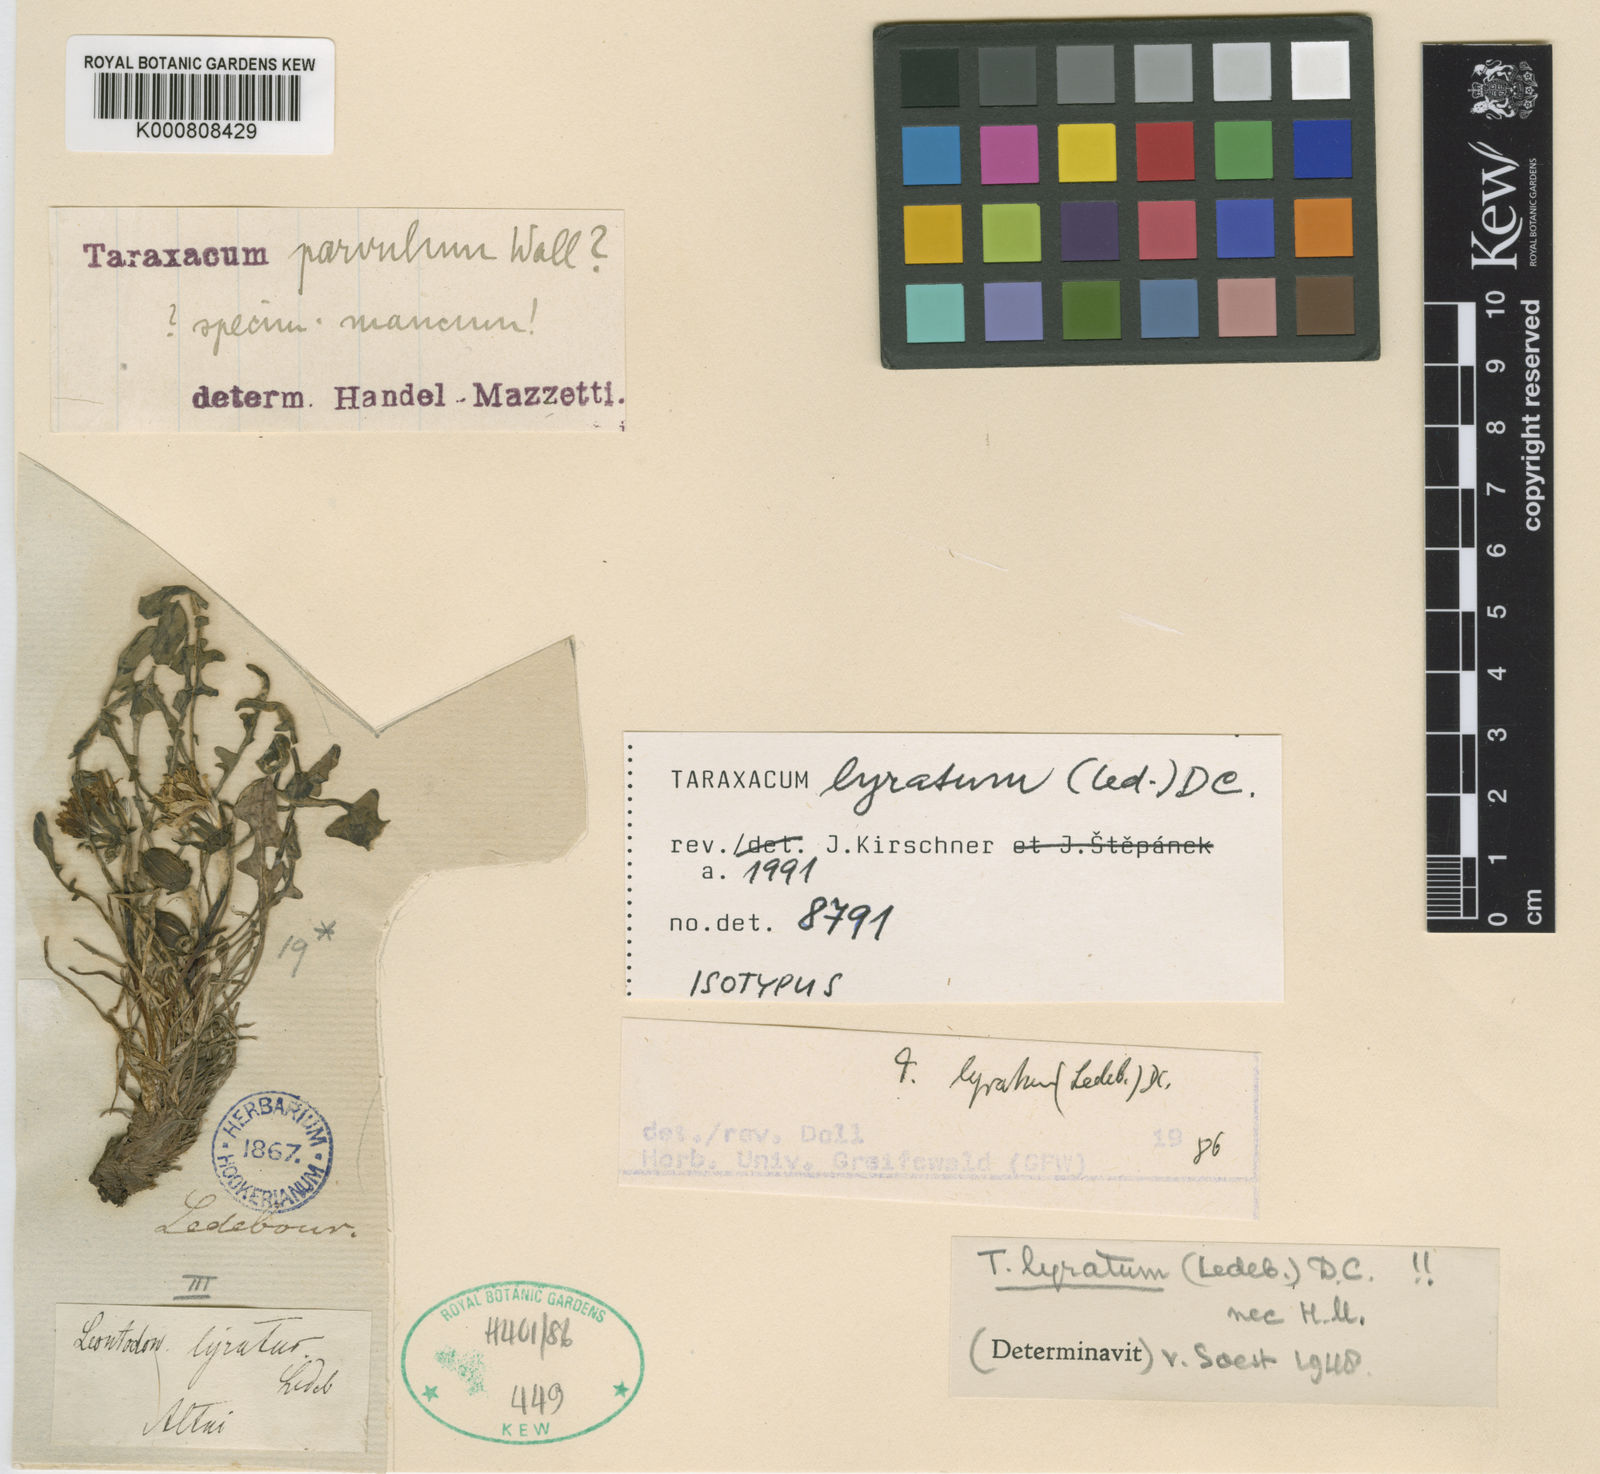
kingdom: Plantae
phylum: Tracheophyta
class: Magnoliopsida
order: Asterales
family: Asteraceae
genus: Taraxacum
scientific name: Taraxacum alaskanum
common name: Alaska dandelion
